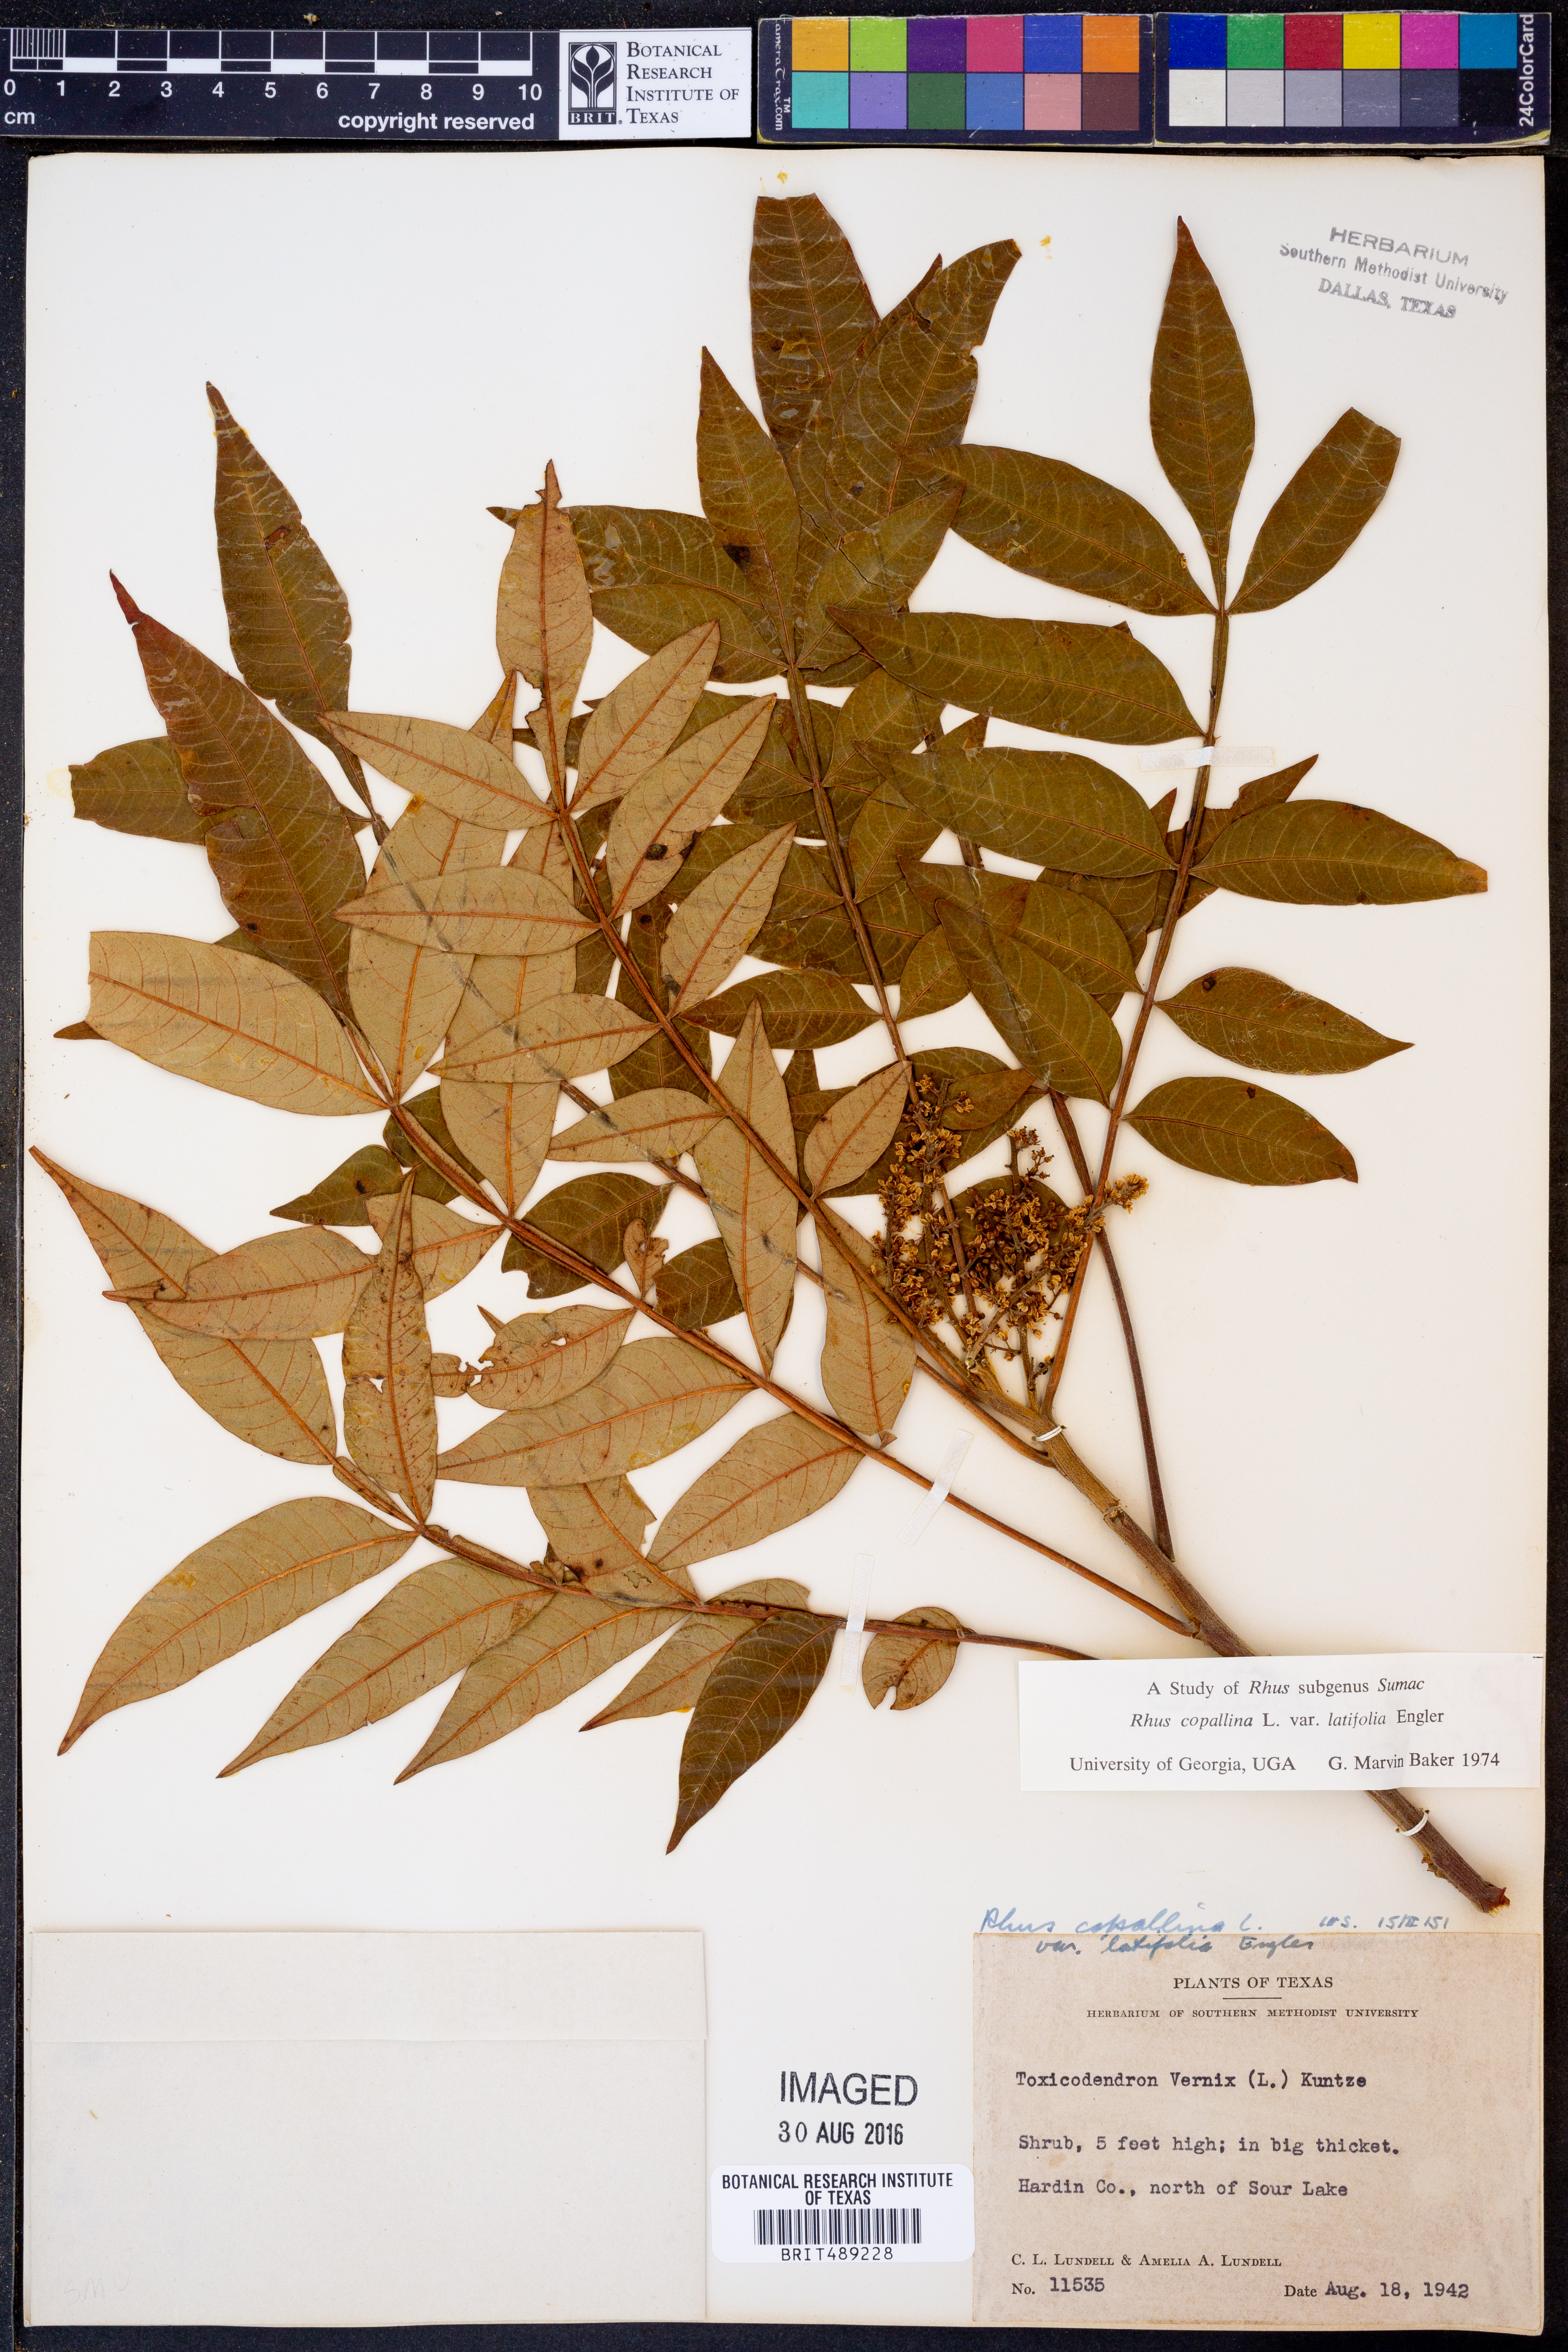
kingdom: Plantae
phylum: Tracheophyta
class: Magnoliopsida
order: Sapindales
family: Anacardiaceae
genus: Rhus
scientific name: Rhus copallina
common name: Shining sumac
